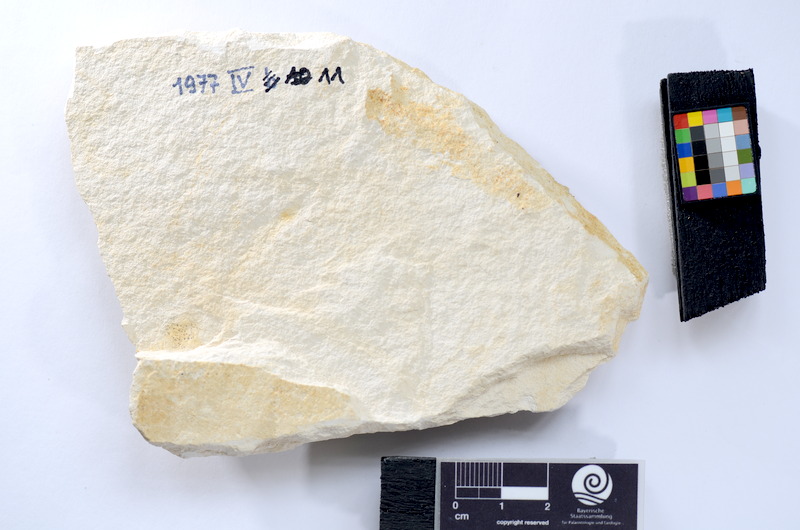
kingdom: Animalia
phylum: Chordata
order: Elopiformes
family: Anaethalionidae
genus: Anaethalion
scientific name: Anaethalion
